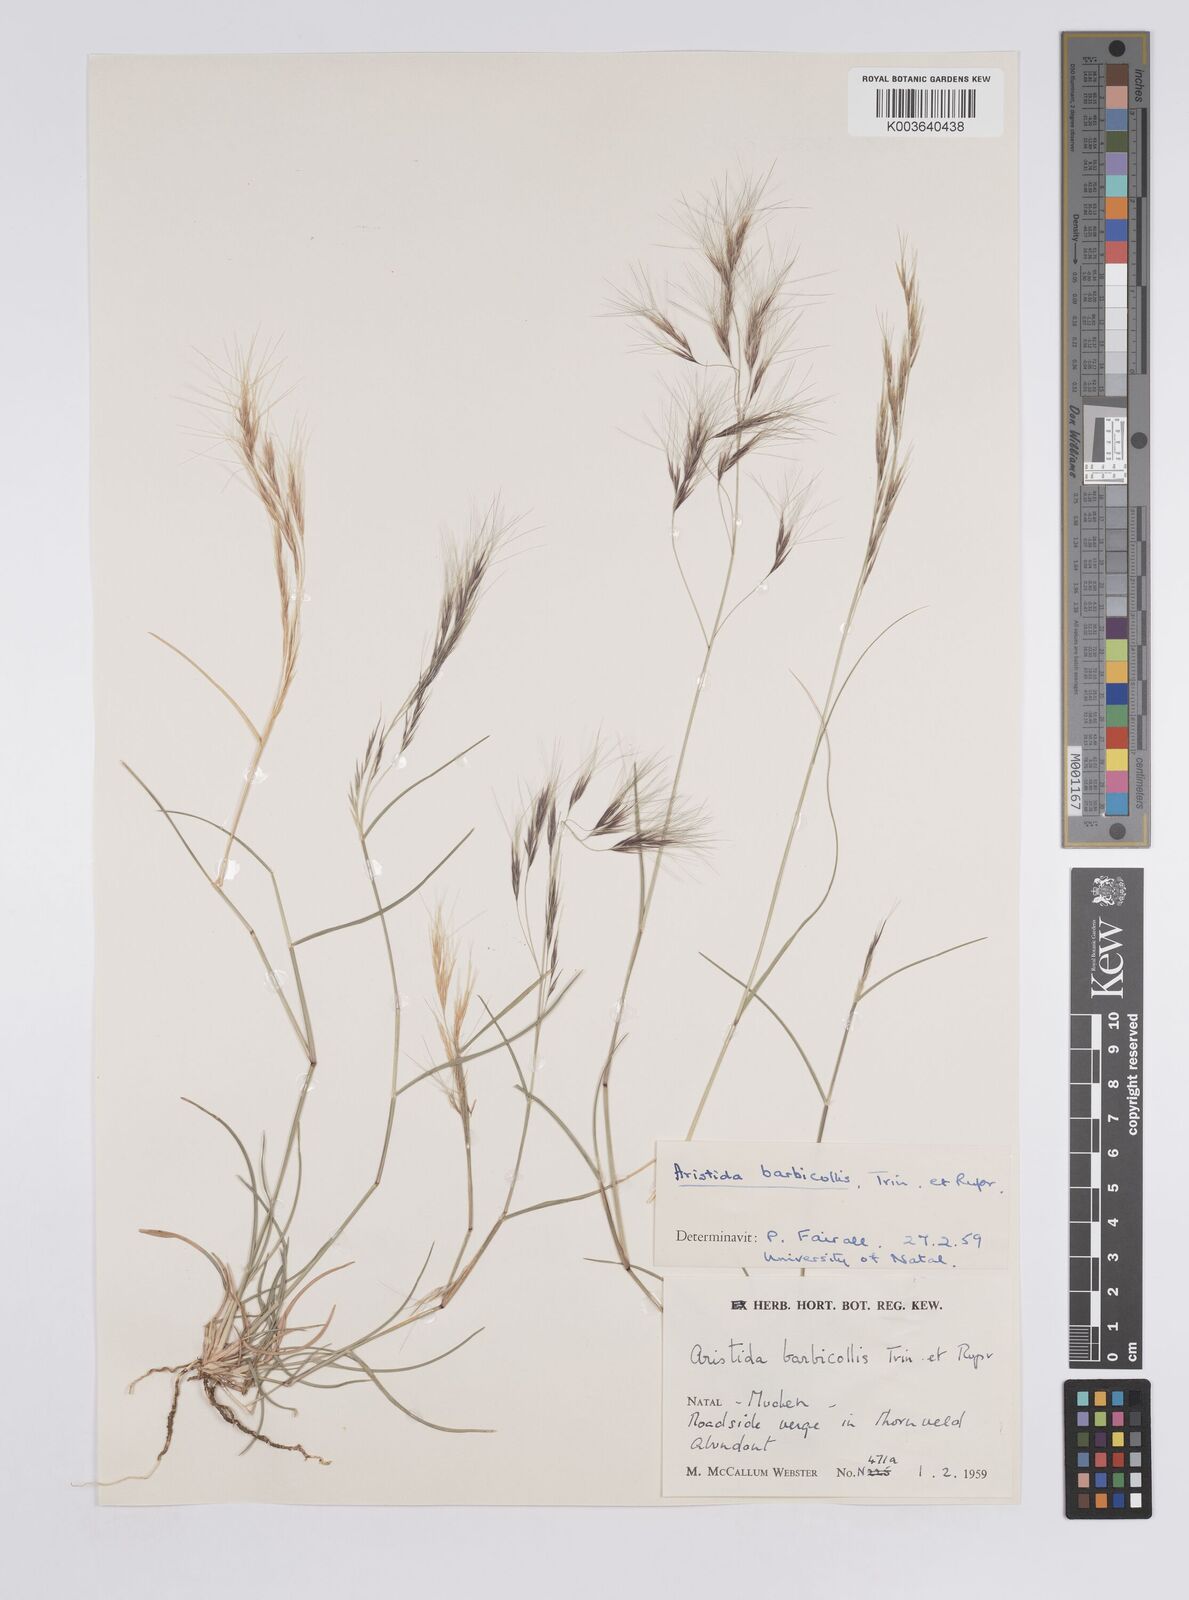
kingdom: Plantae
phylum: Tracheophyta
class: Liliopsida
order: Poales
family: Poaceae
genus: Aristida
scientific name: Aristida barbicollis
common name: Spreading prickle grass
